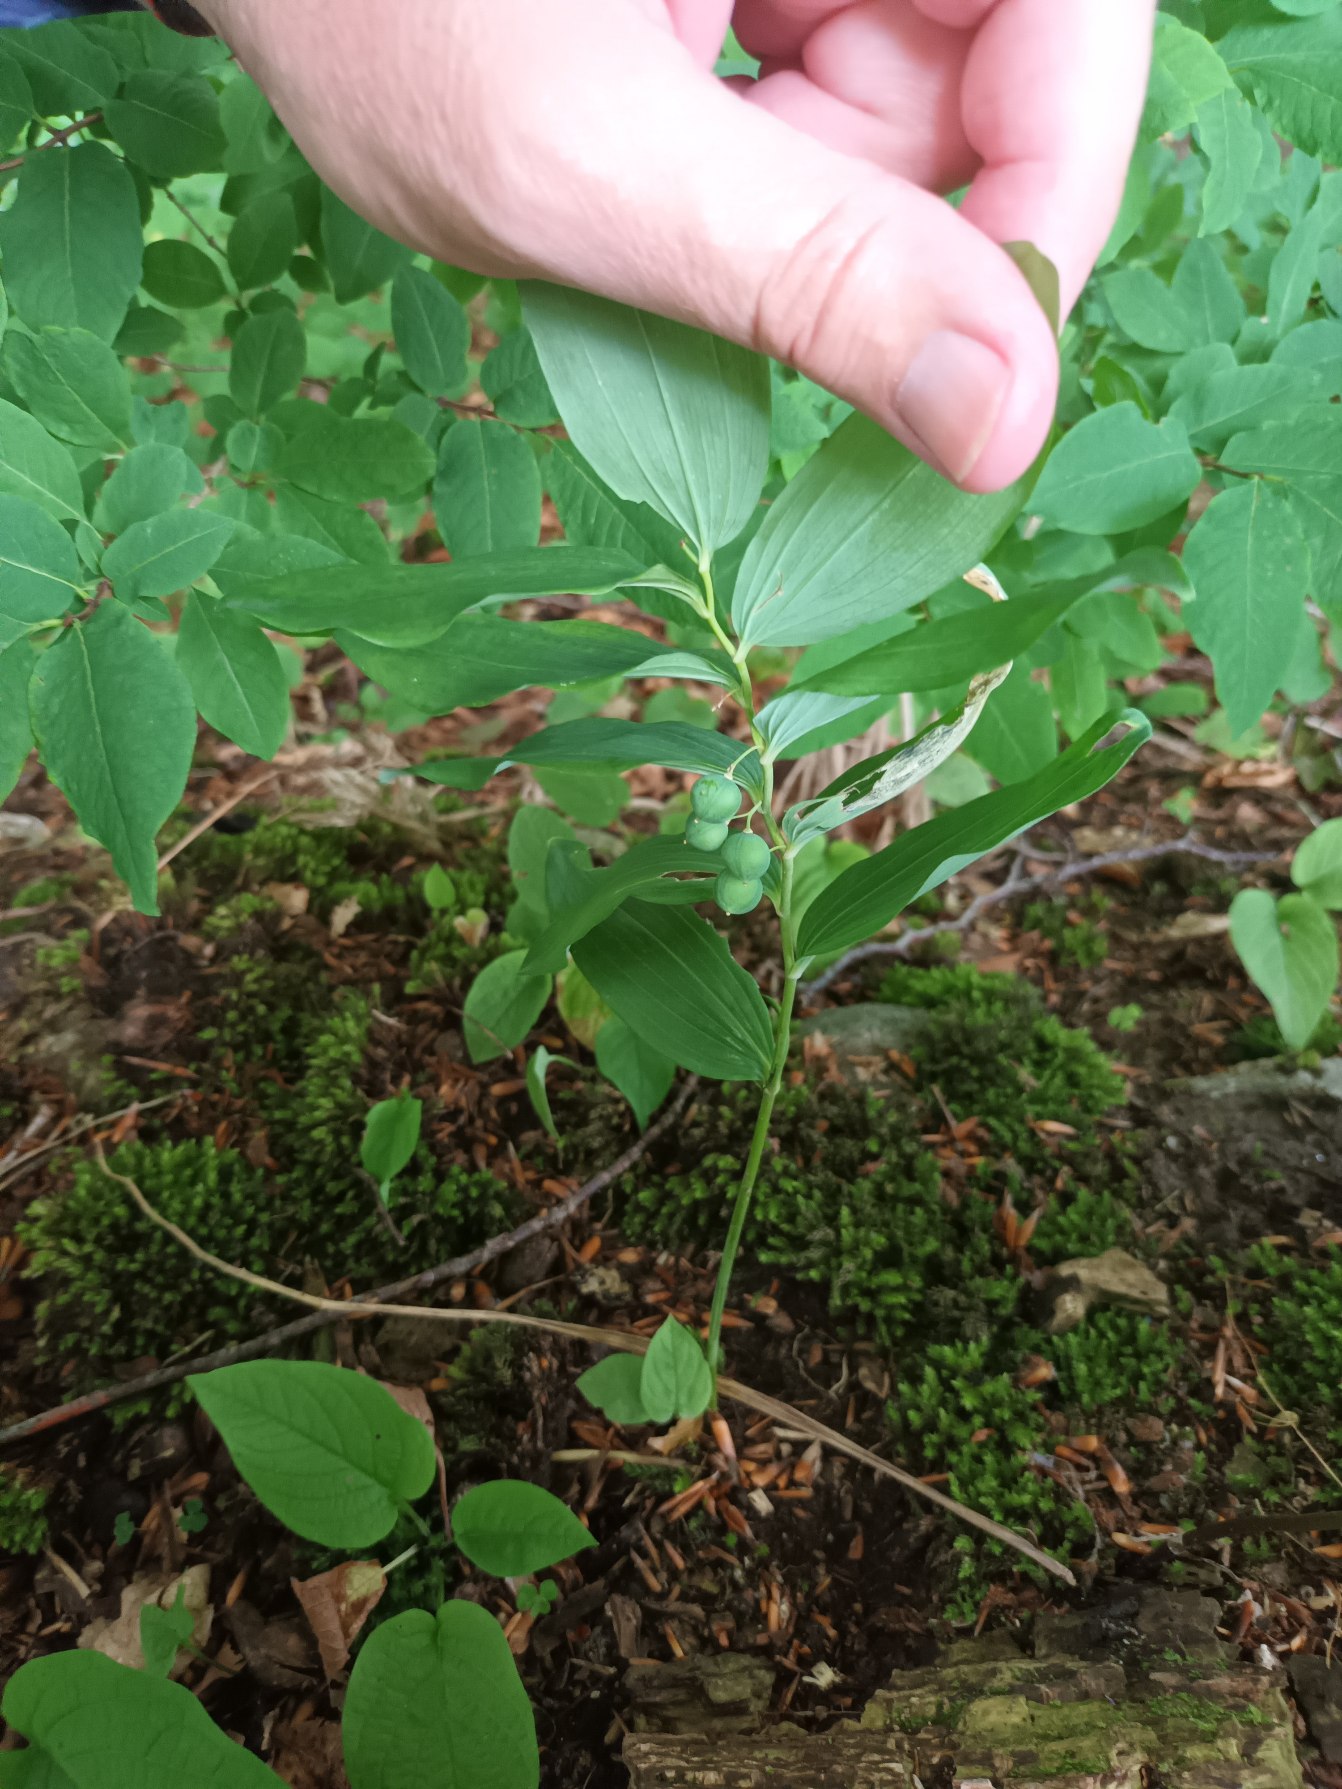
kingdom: Plantae
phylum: Tracheophyta
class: Liliopsida
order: Asparagales
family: Asparagaceae
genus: Polygonatum
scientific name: Polygonatum multiflorum
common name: Stor konval
